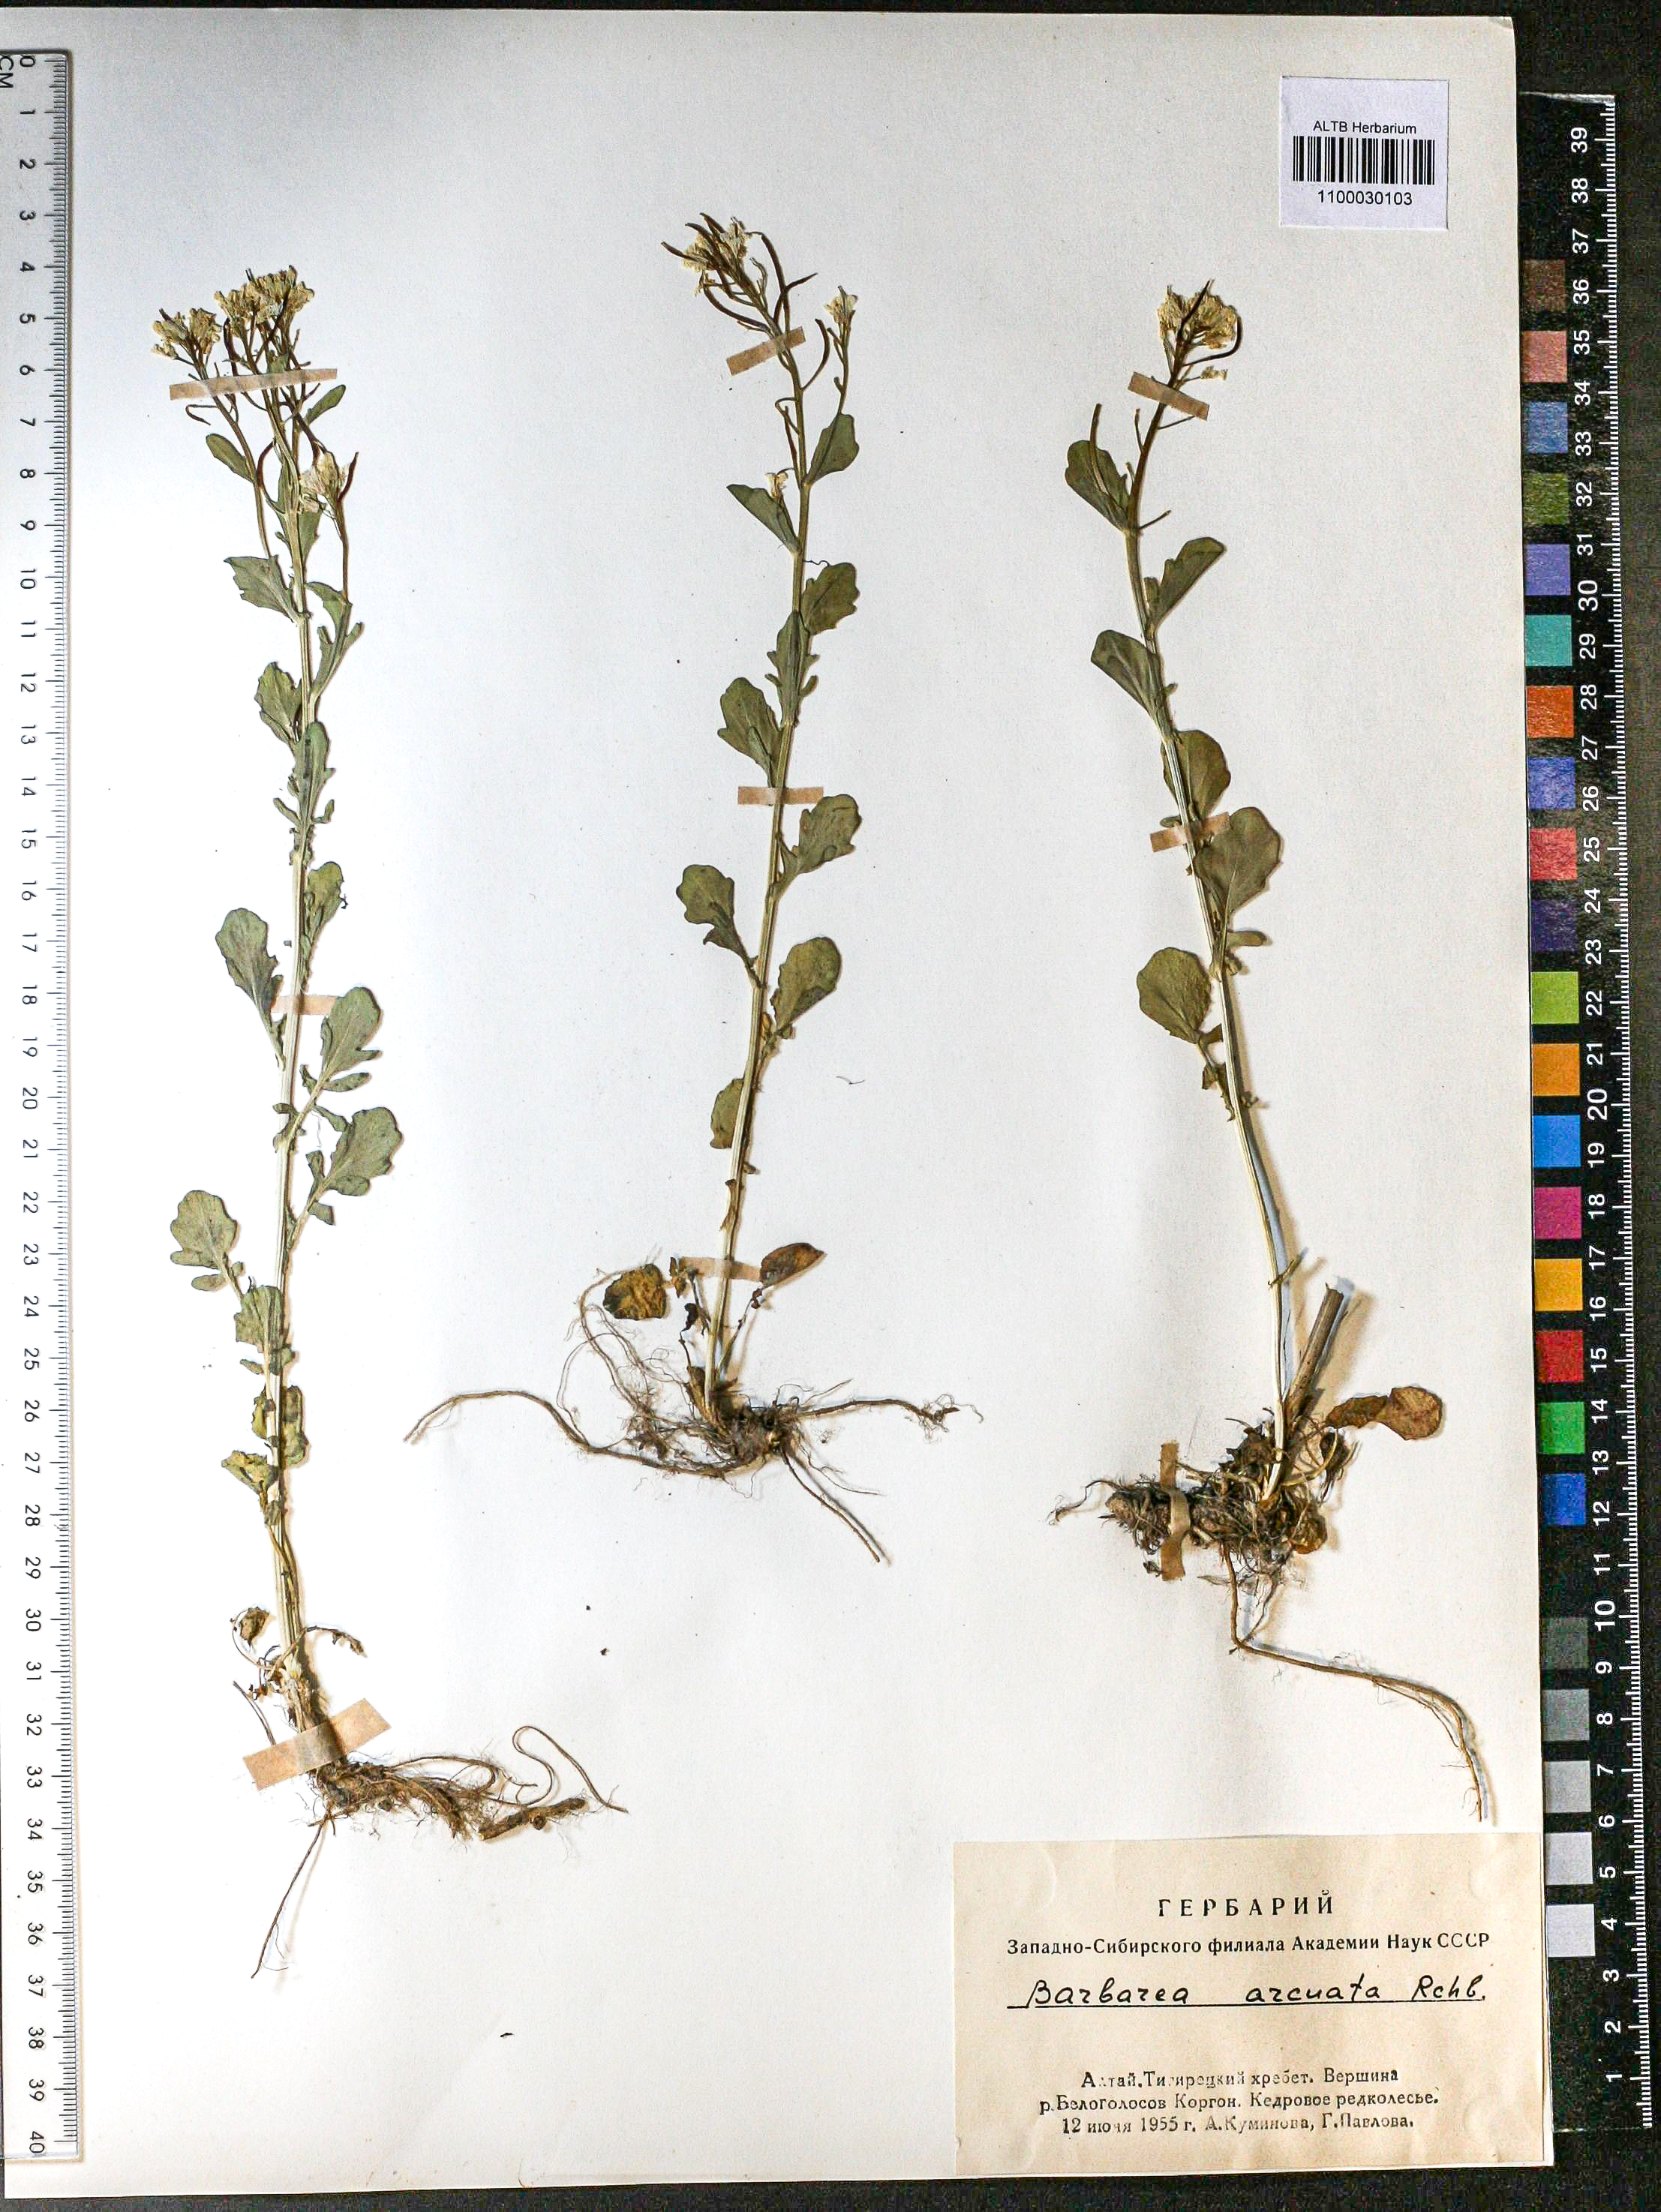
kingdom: Plantae
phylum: Tracheophyta
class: Magnoliopsida
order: Brassicales
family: Brassicaceae
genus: Barbarea
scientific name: Barbarea vulgaris
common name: Cressy-greens
